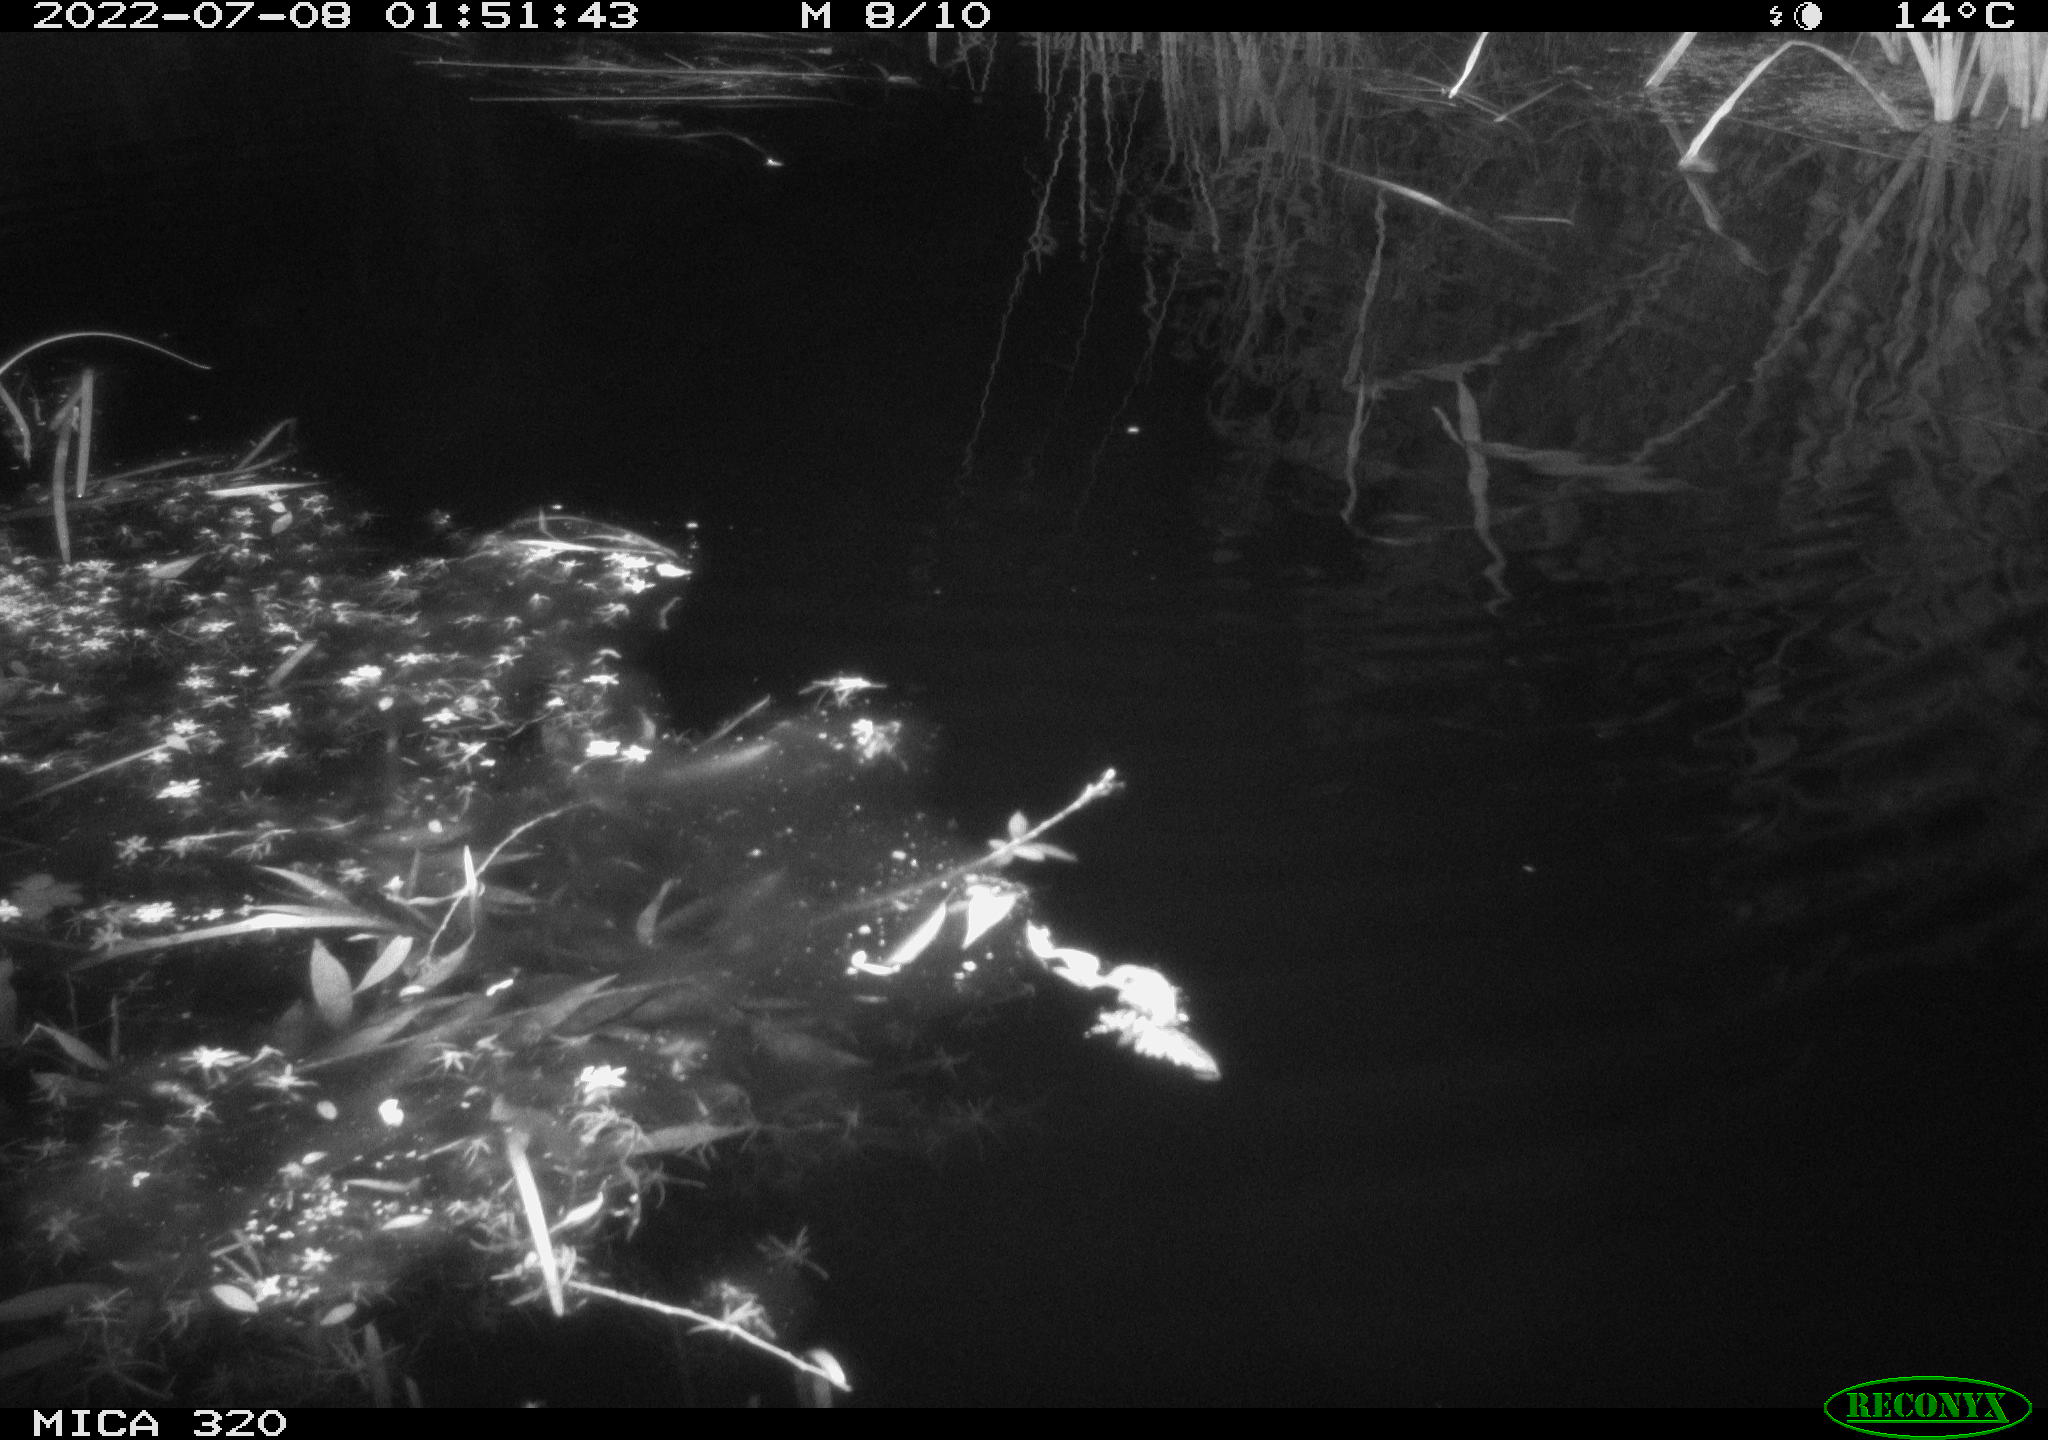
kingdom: Animalia
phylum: Chordata
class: Mammalia
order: Rodentia
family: Muridae
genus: Rattus
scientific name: Rattus norvegicus
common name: Brown rat
